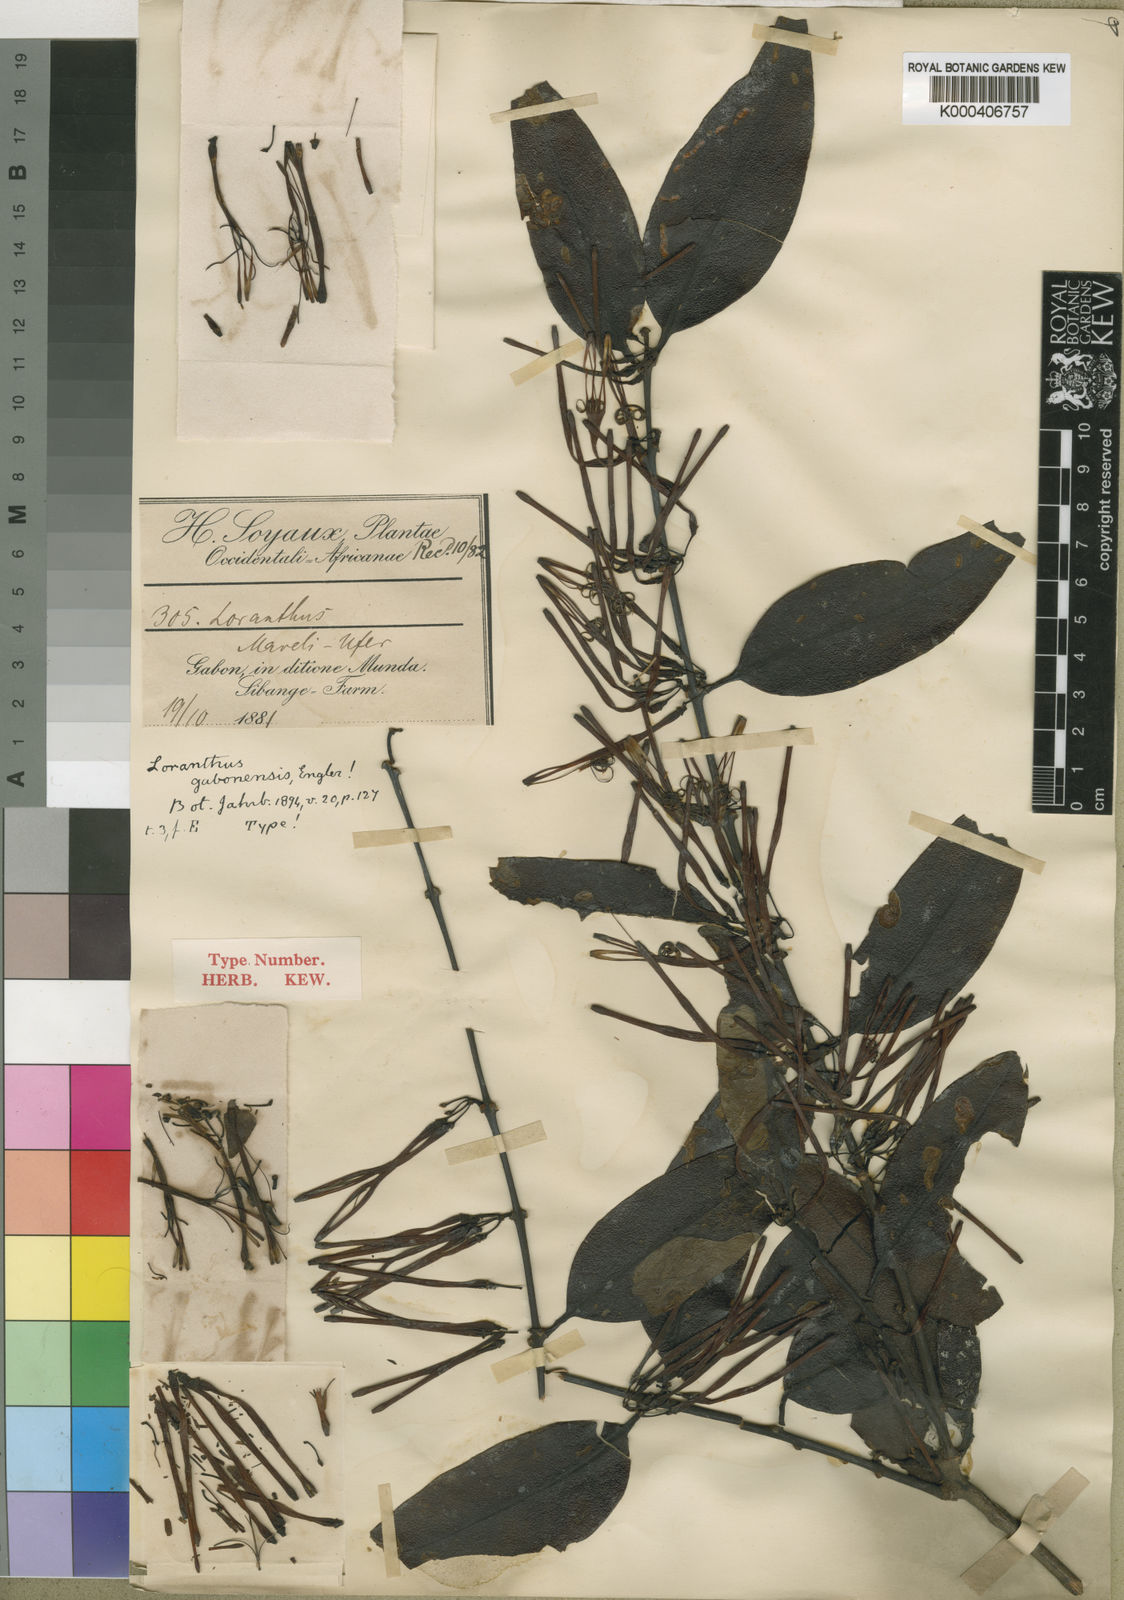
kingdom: Plantae
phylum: Tracheophyta
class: Magnoliopsida
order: Santalales
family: Loranthaceae
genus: Englerina
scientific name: Englerina gabonensis
